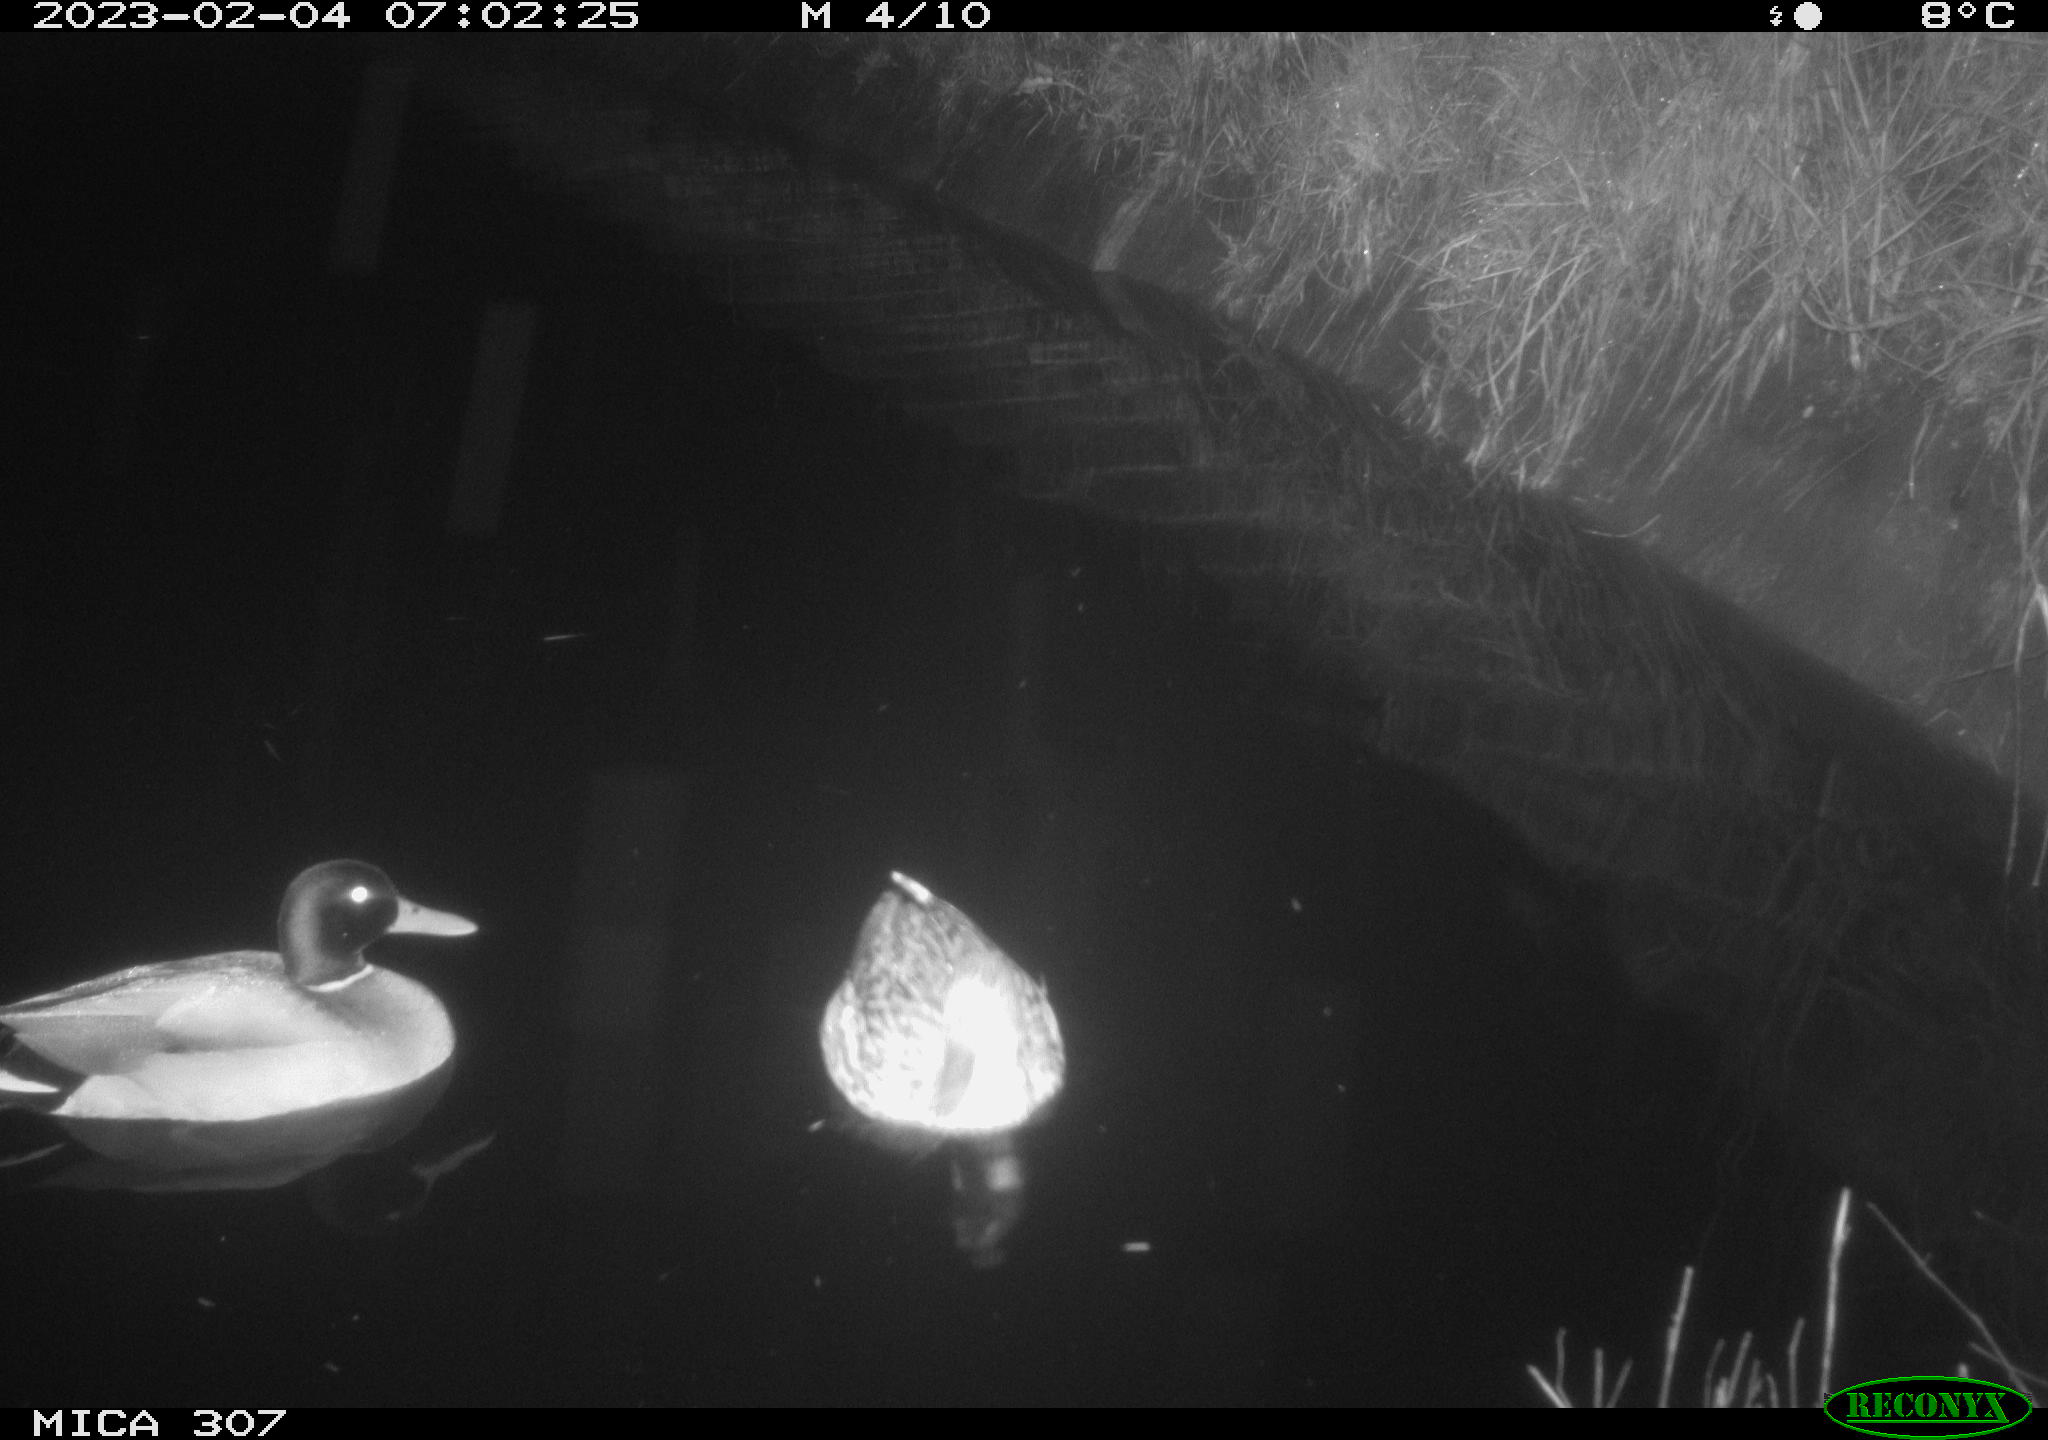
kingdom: Animalia
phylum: Chordata
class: Aves
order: Anseriformes
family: Anatidae
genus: Anas
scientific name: Anas
